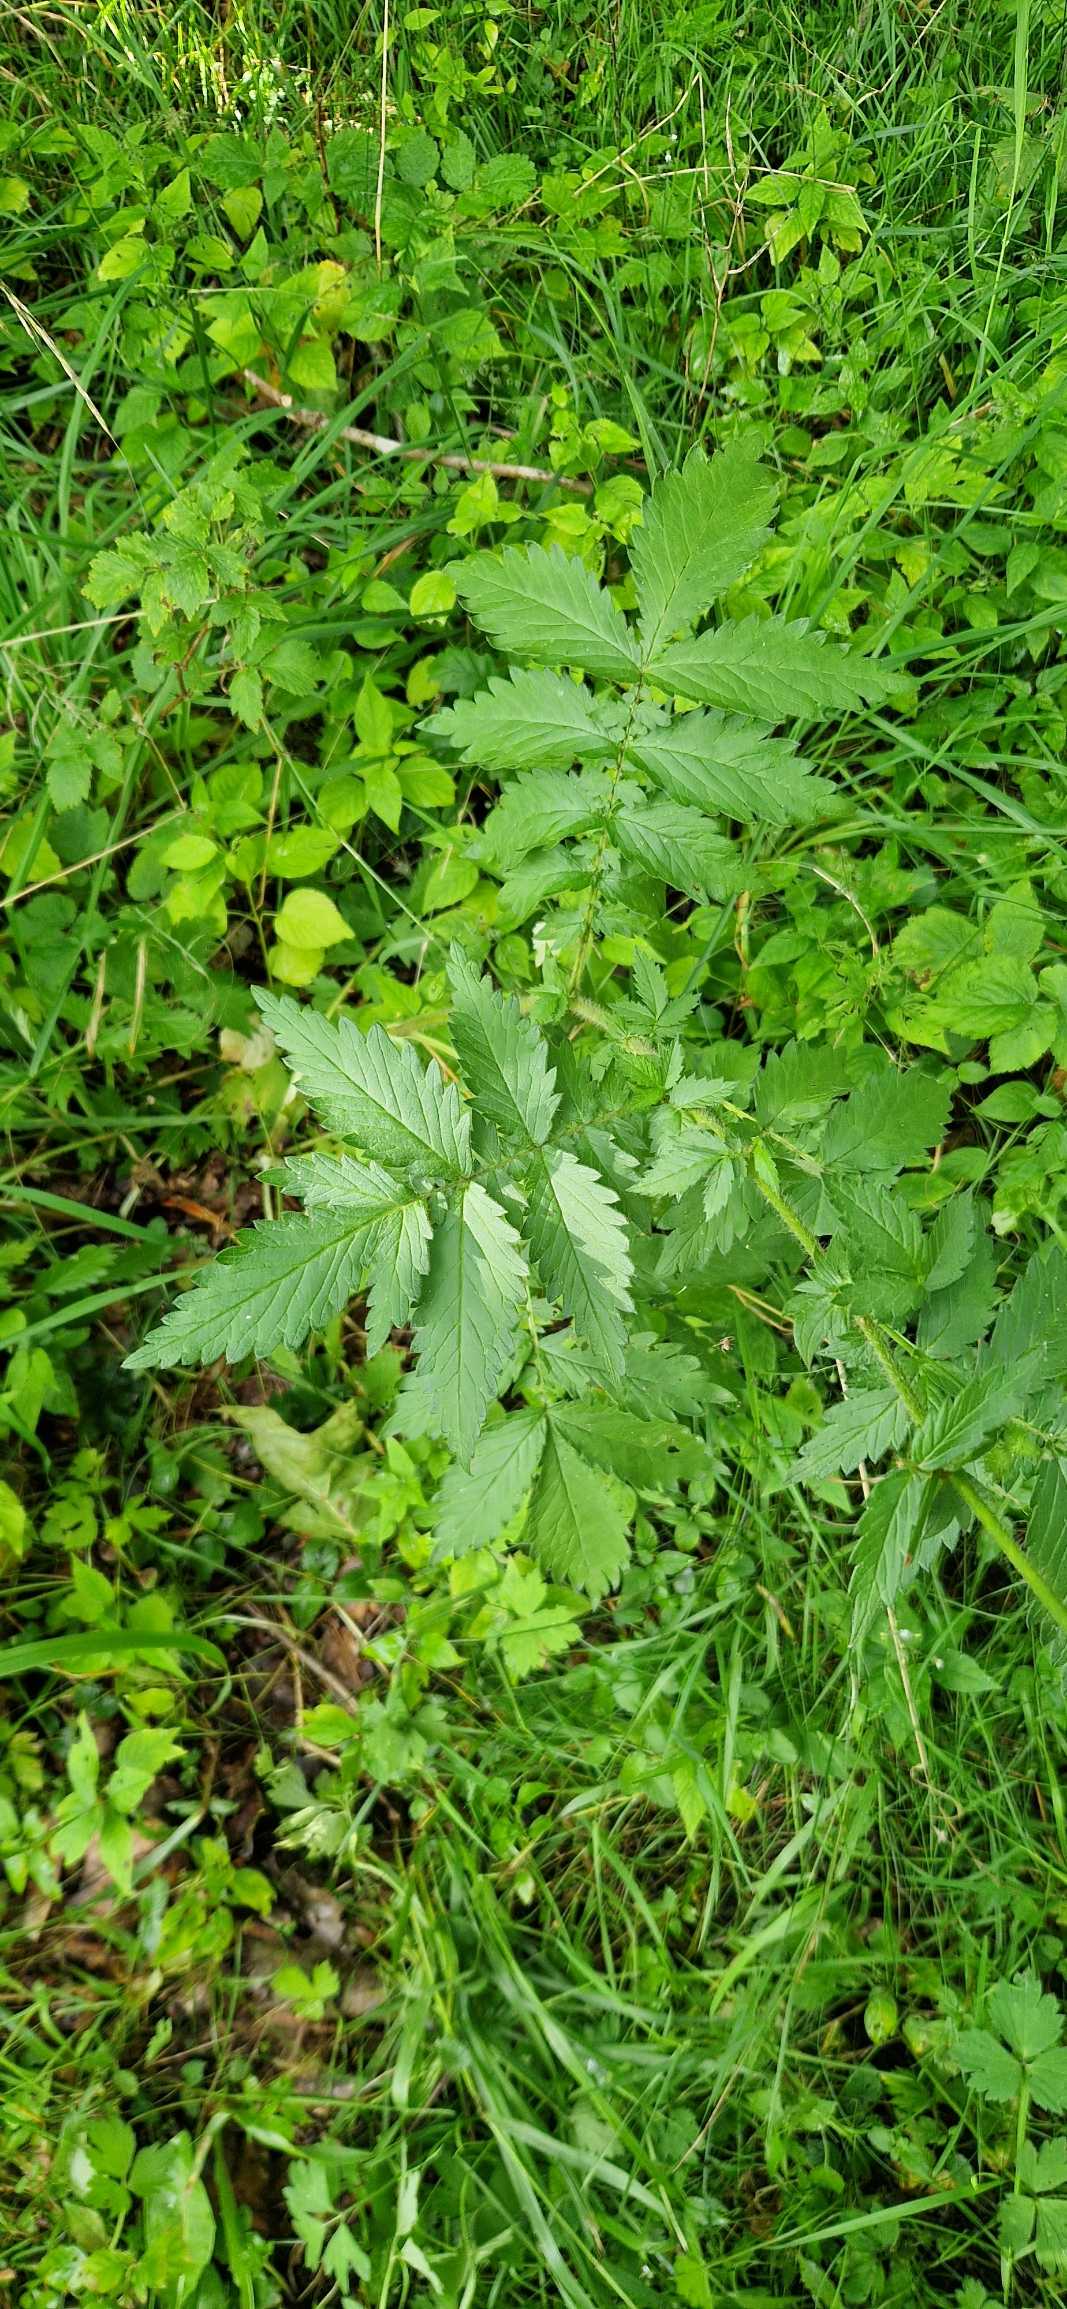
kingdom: Plantae
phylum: Tracheophyta
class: Magnoliopsida
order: Rosales
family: Rosaceae
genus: Agrimonia
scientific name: Agrimonia procera
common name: Vellugtende agermåne
